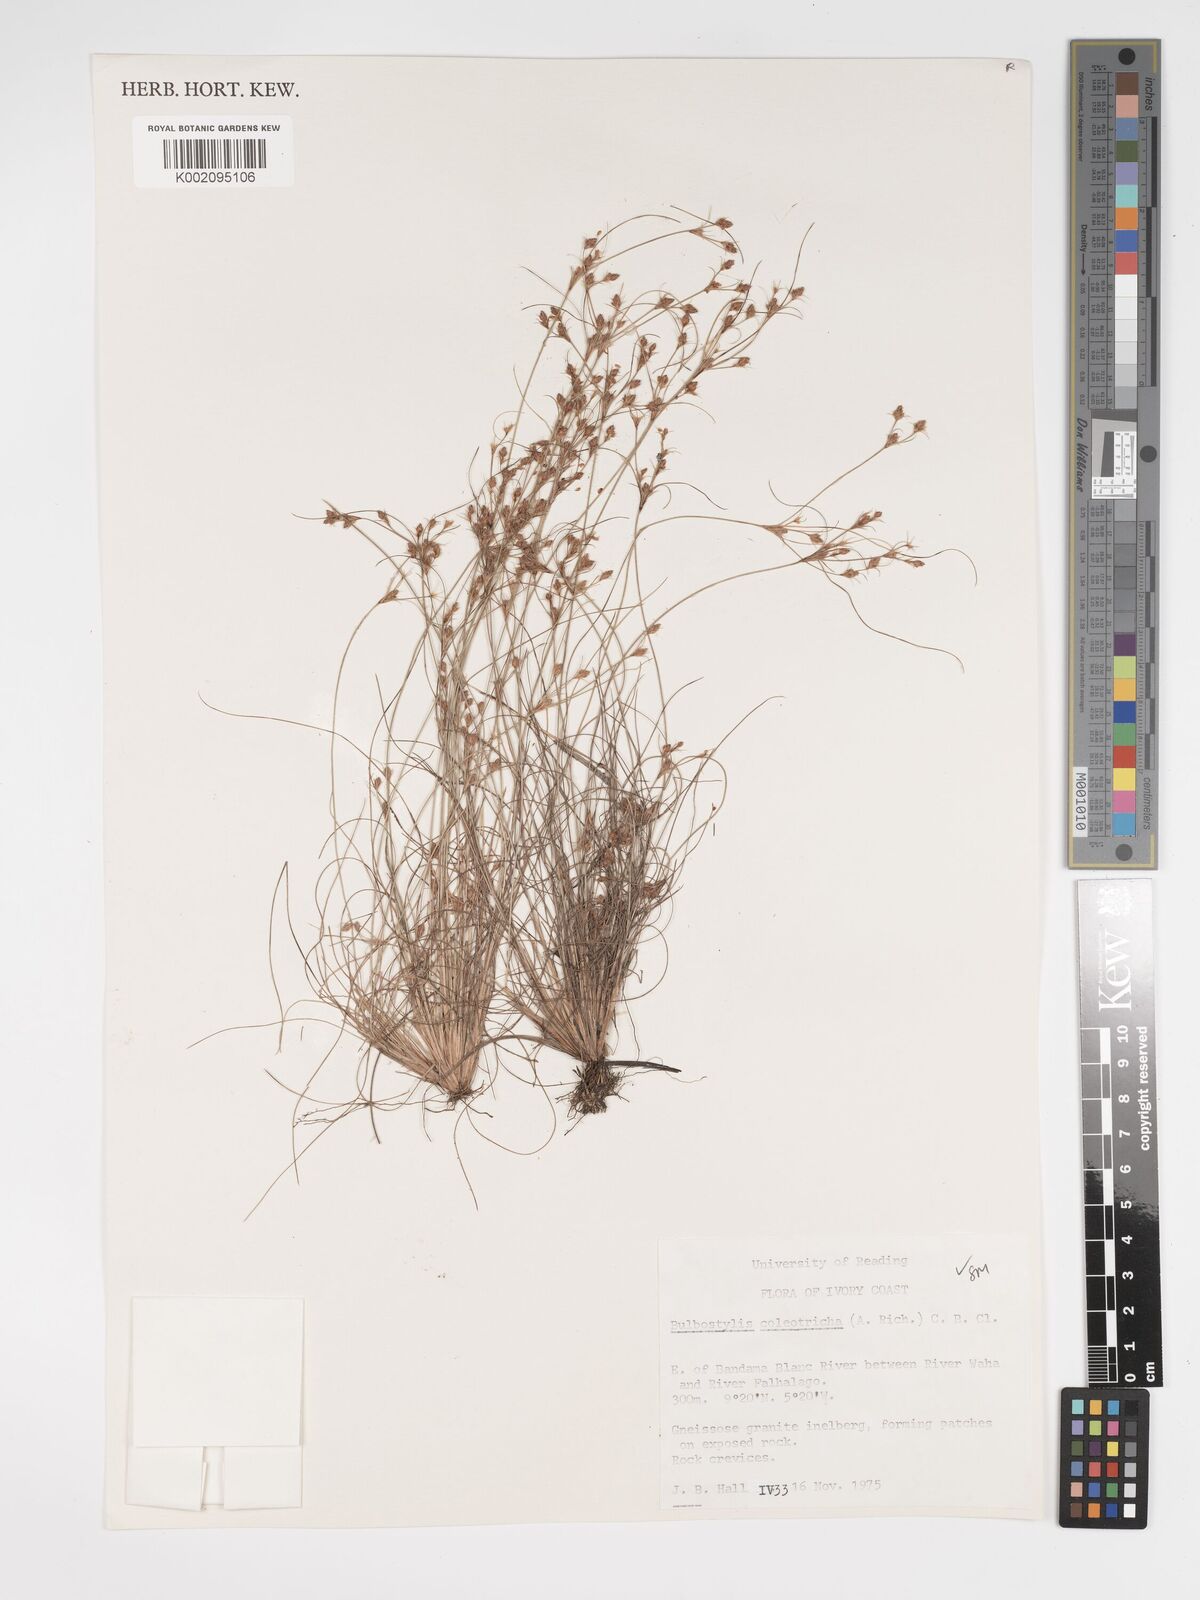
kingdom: Plantae
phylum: Tracheophyta
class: Liliopsida
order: Poales
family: Cyperaceae
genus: Bulbostylis
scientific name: Bulbostylis coleotricha
